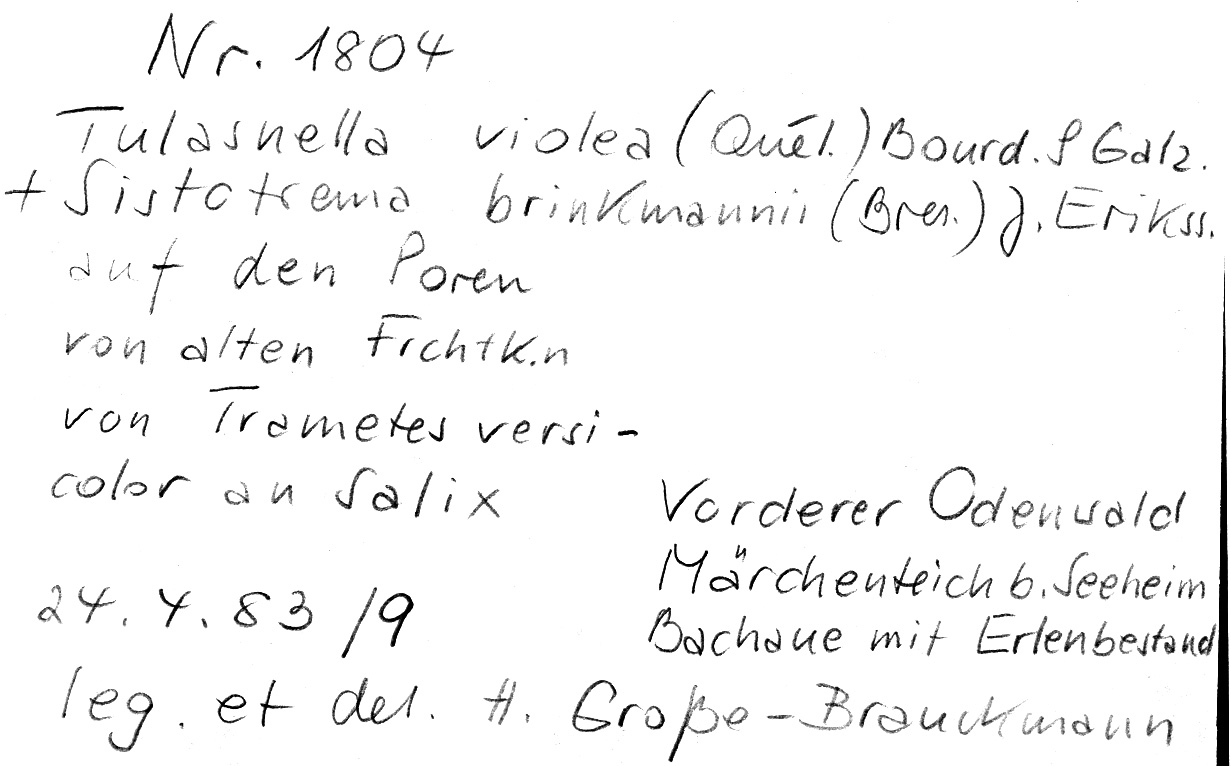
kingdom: Fungi
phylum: Basidiomycota
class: Agaricomycetes
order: Cantharellales
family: Hydnaceae
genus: Sistotrema
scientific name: Sistotrema brinkmannii
